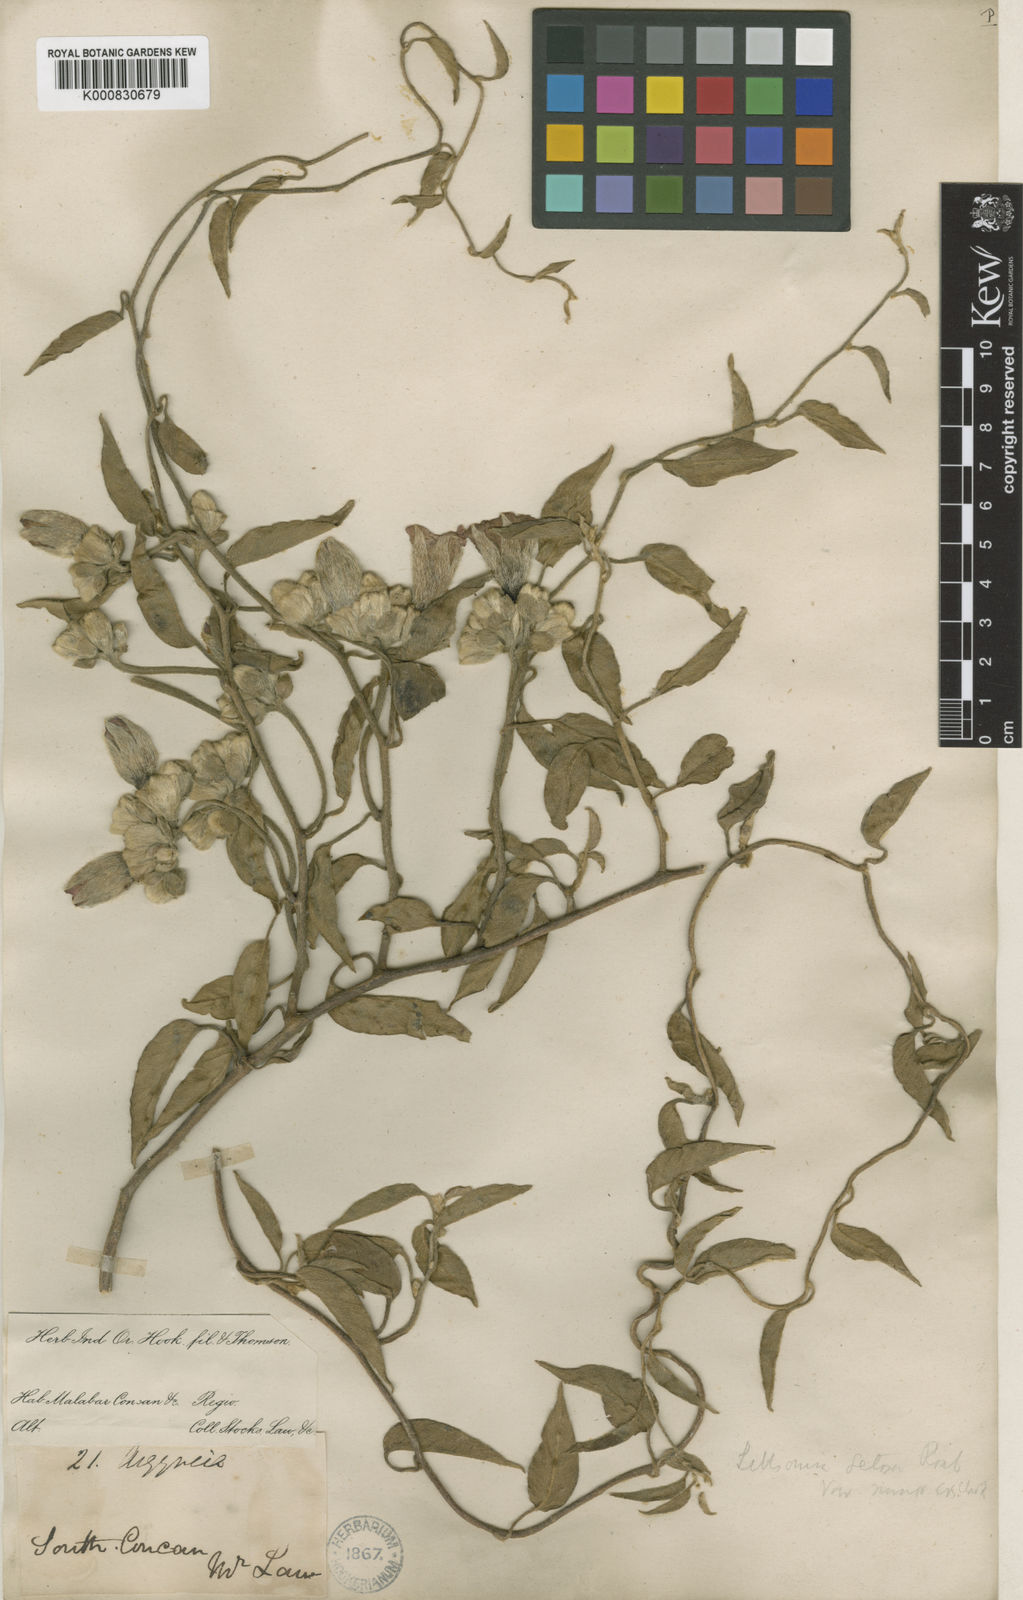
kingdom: Plantae
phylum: Tracheophyta
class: Magnoliopsida
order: Solanales
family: Convolvulaceae
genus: Argyreia
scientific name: Argyreia setosa
